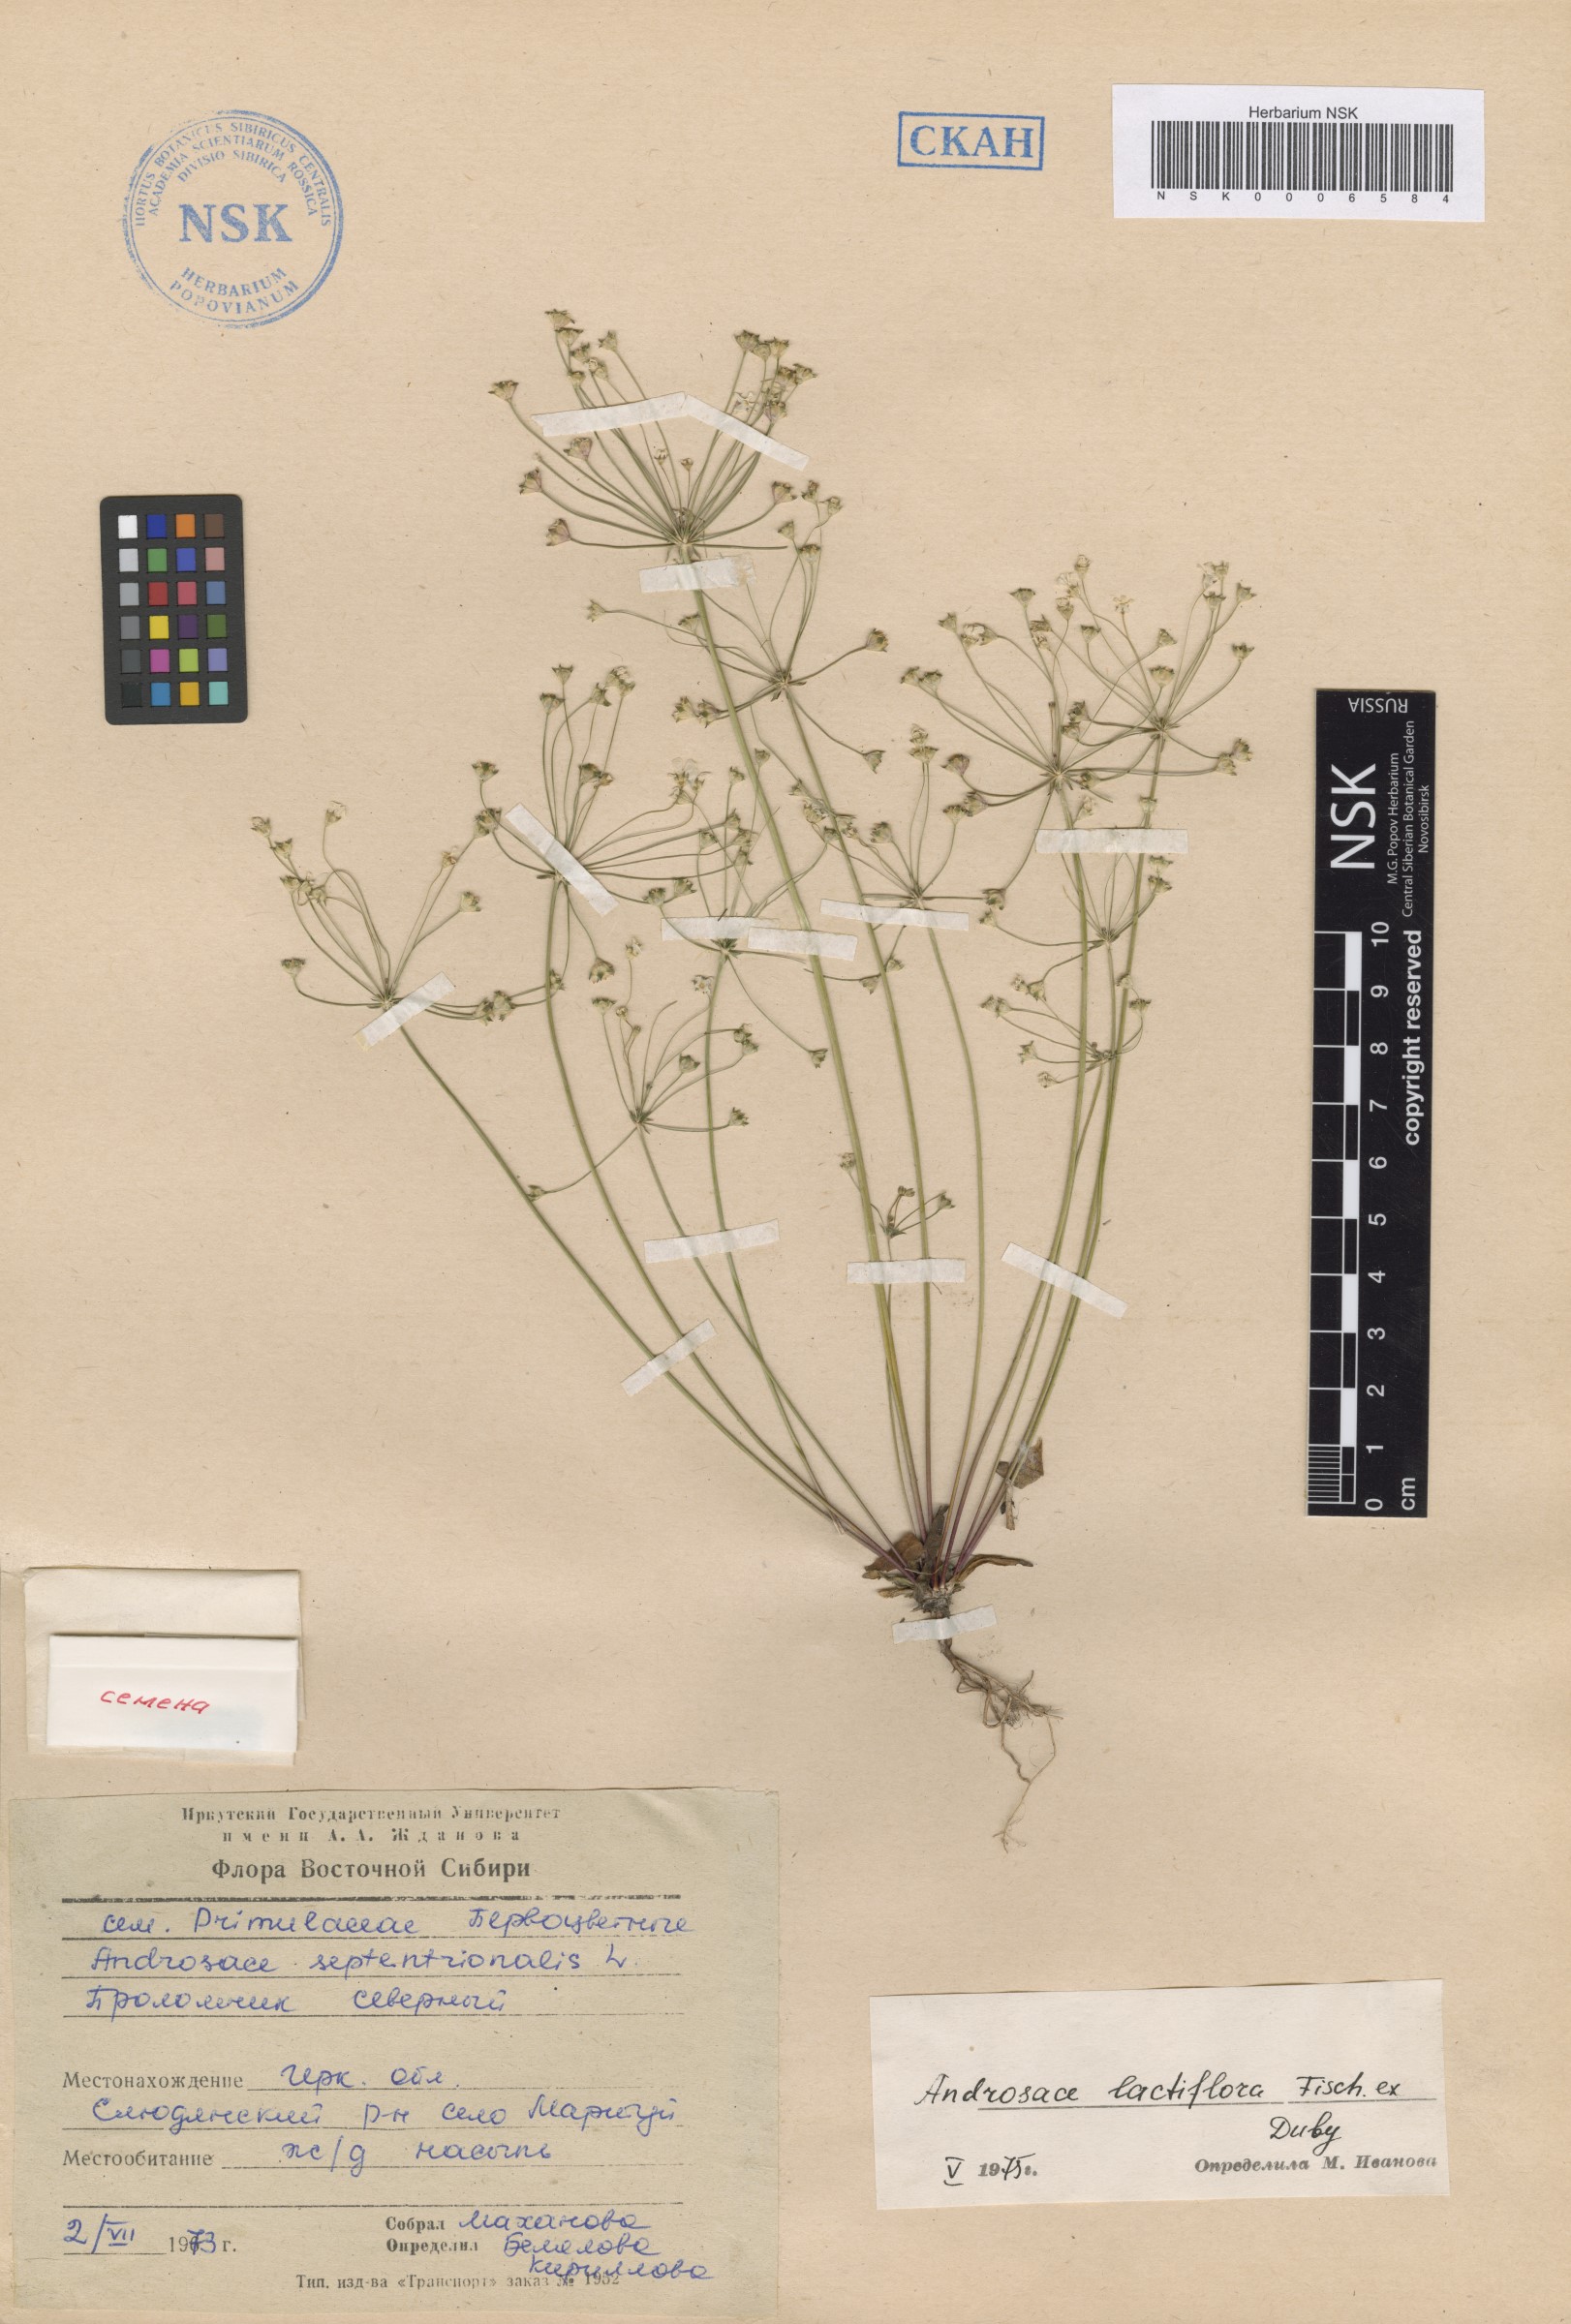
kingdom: Plantae
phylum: Tracheophyta
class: Magnoliopsida
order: Ericales
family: Primulaceae
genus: Androsace
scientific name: Androsace lactiflora
